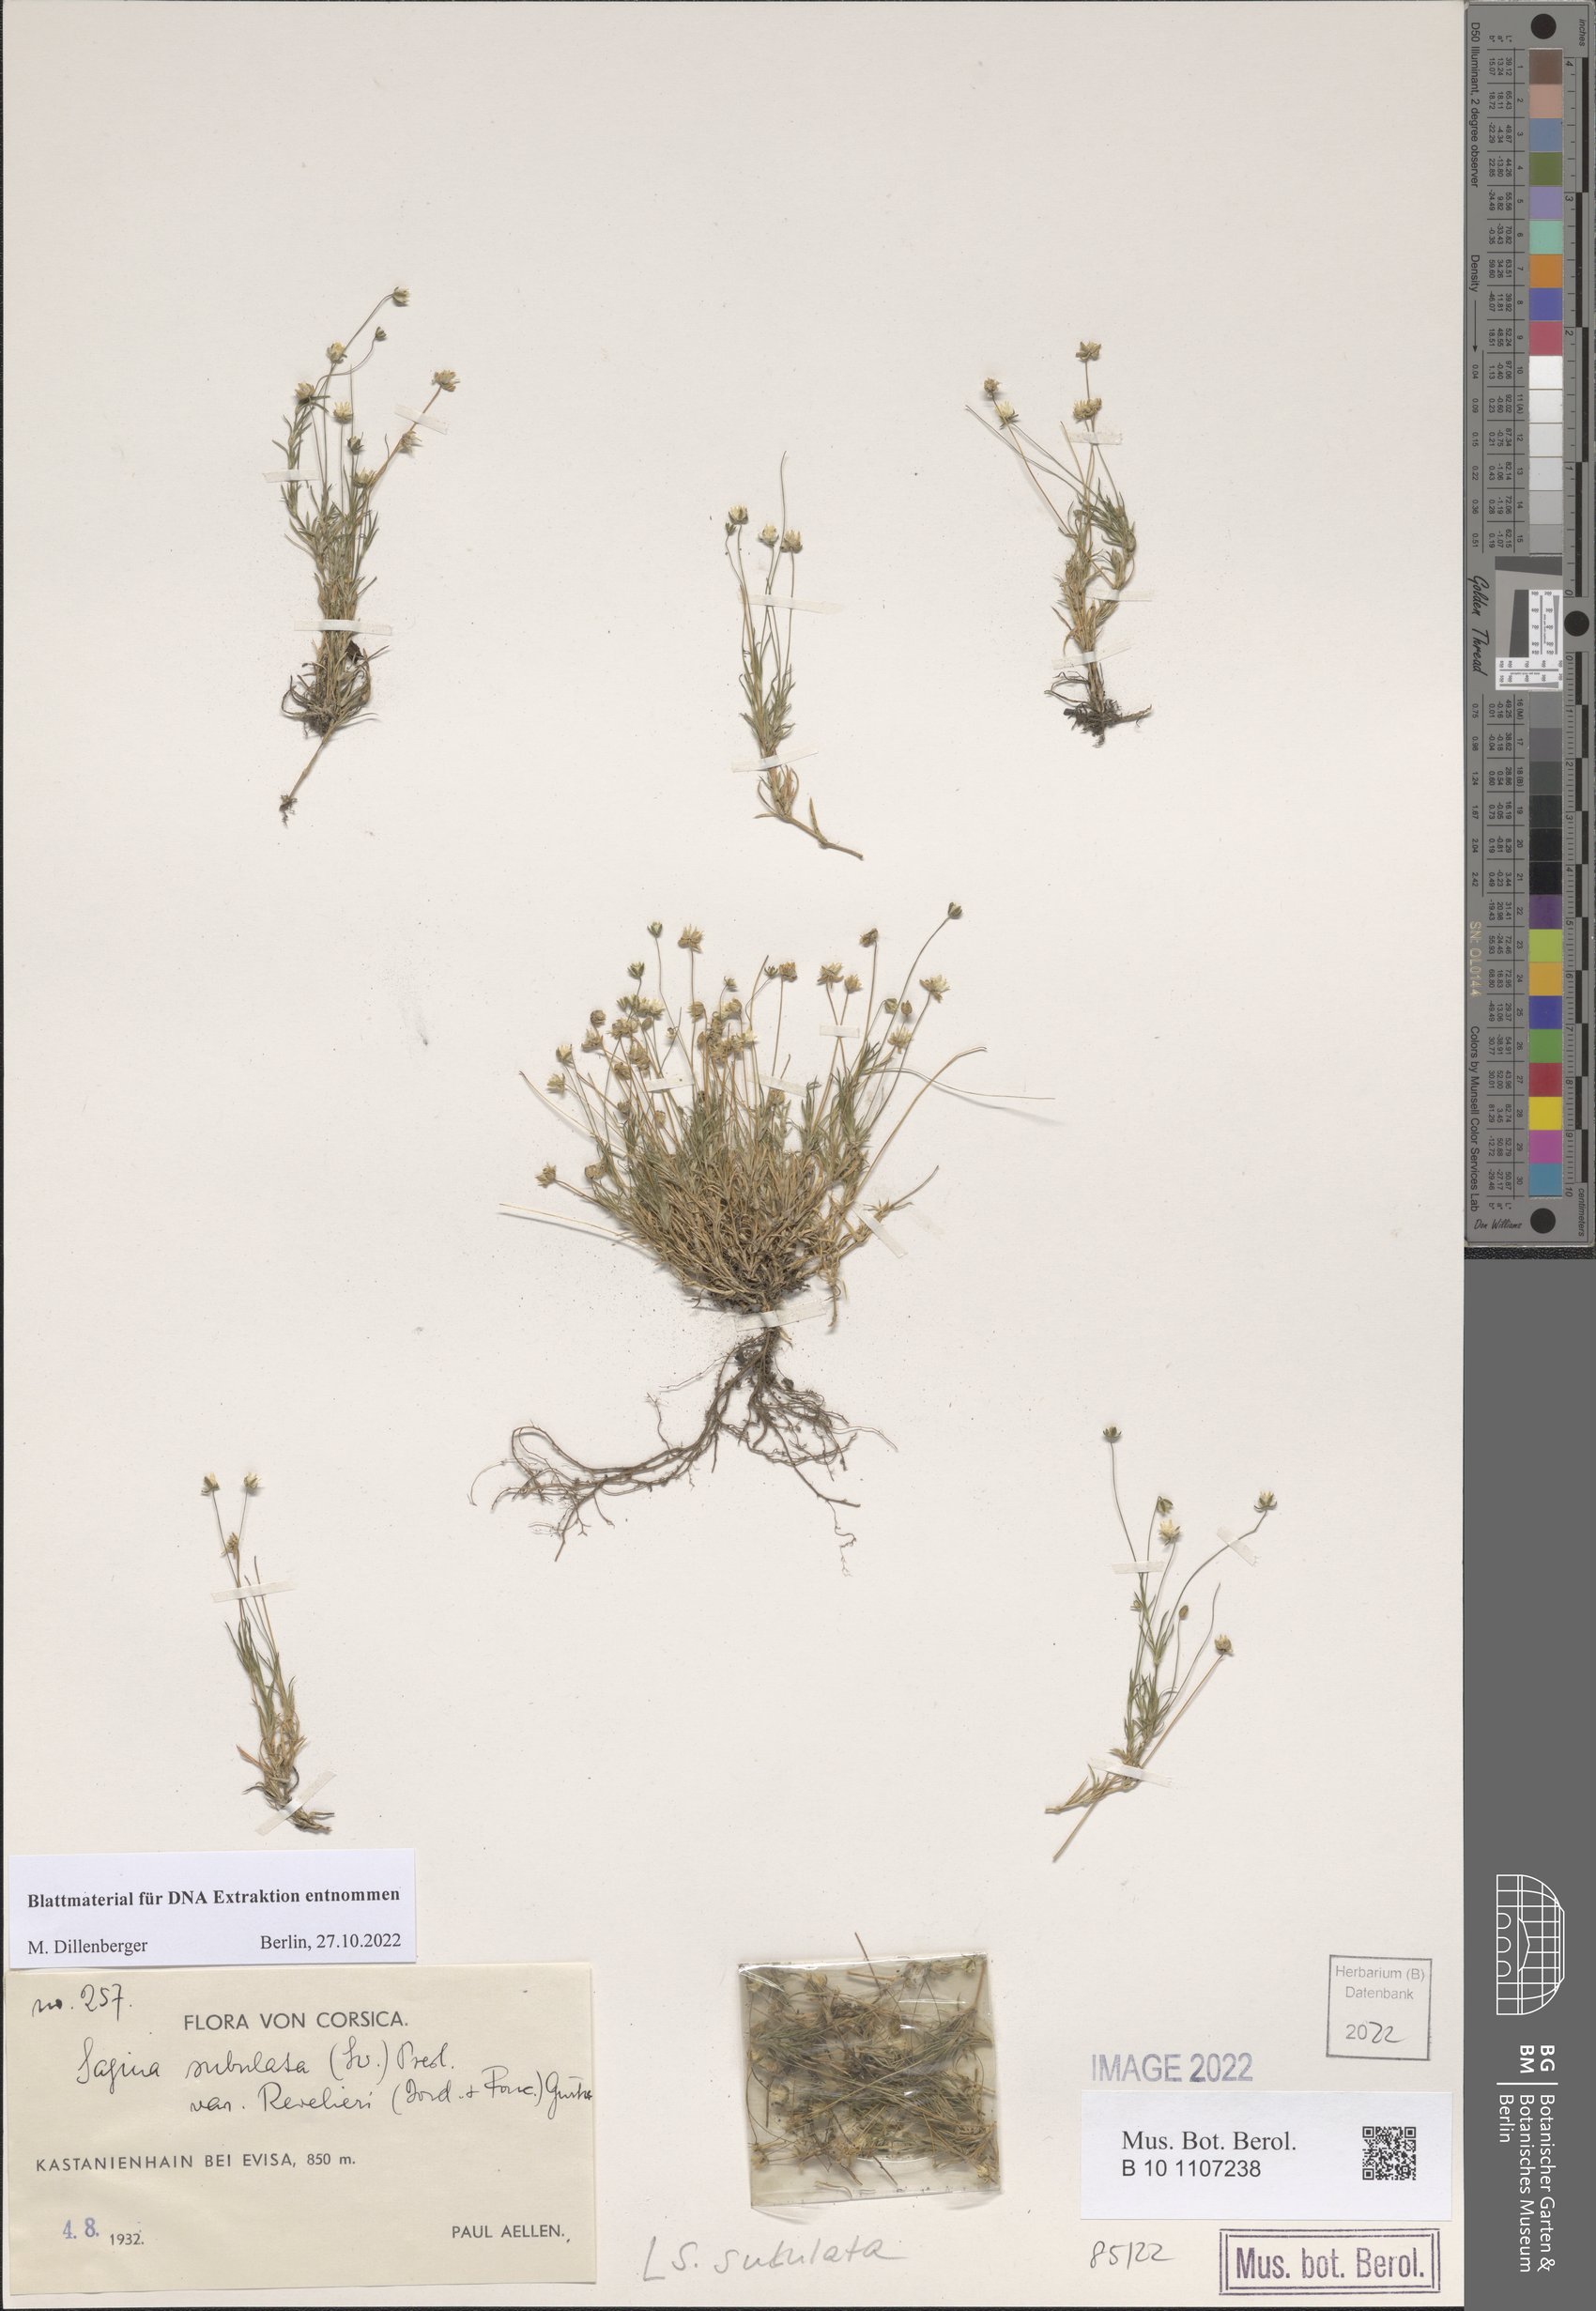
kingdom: Plantae
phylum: Tracheophyta
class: Magnoliopsida
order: Caryophyllales
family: Caryophyllaceae
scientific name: Caryophyllaceae
